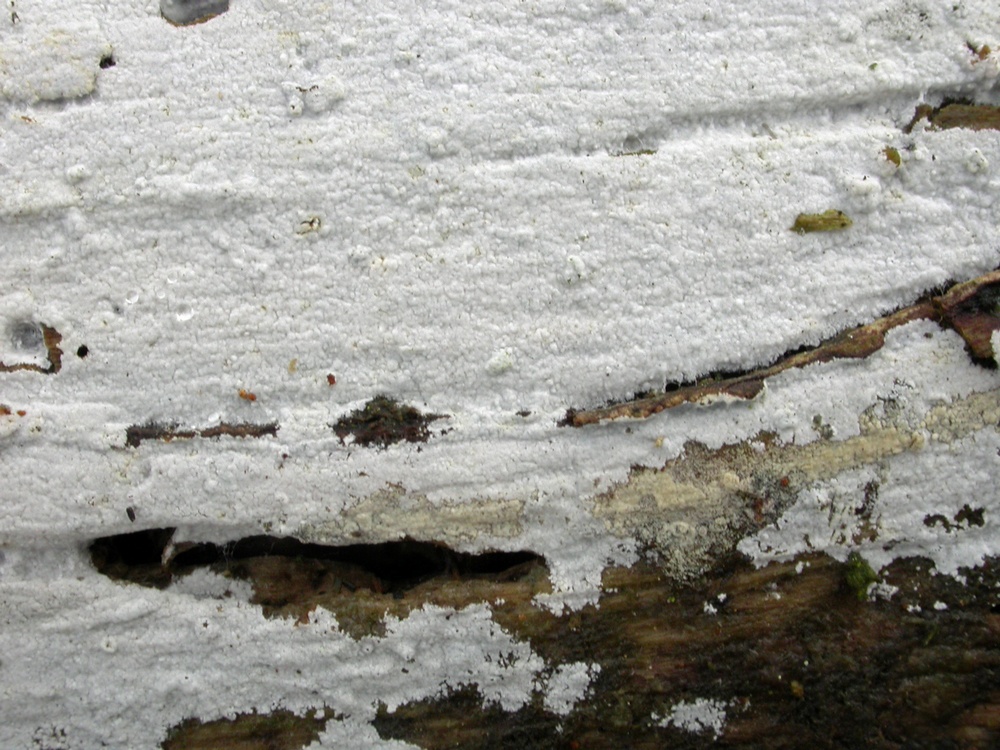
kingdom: Fungi
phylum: Basidiomycota
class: Agaricomycetes
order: Atheliales
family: Atheliaceae
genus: Athelia
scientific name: Athelia neuhoffii
